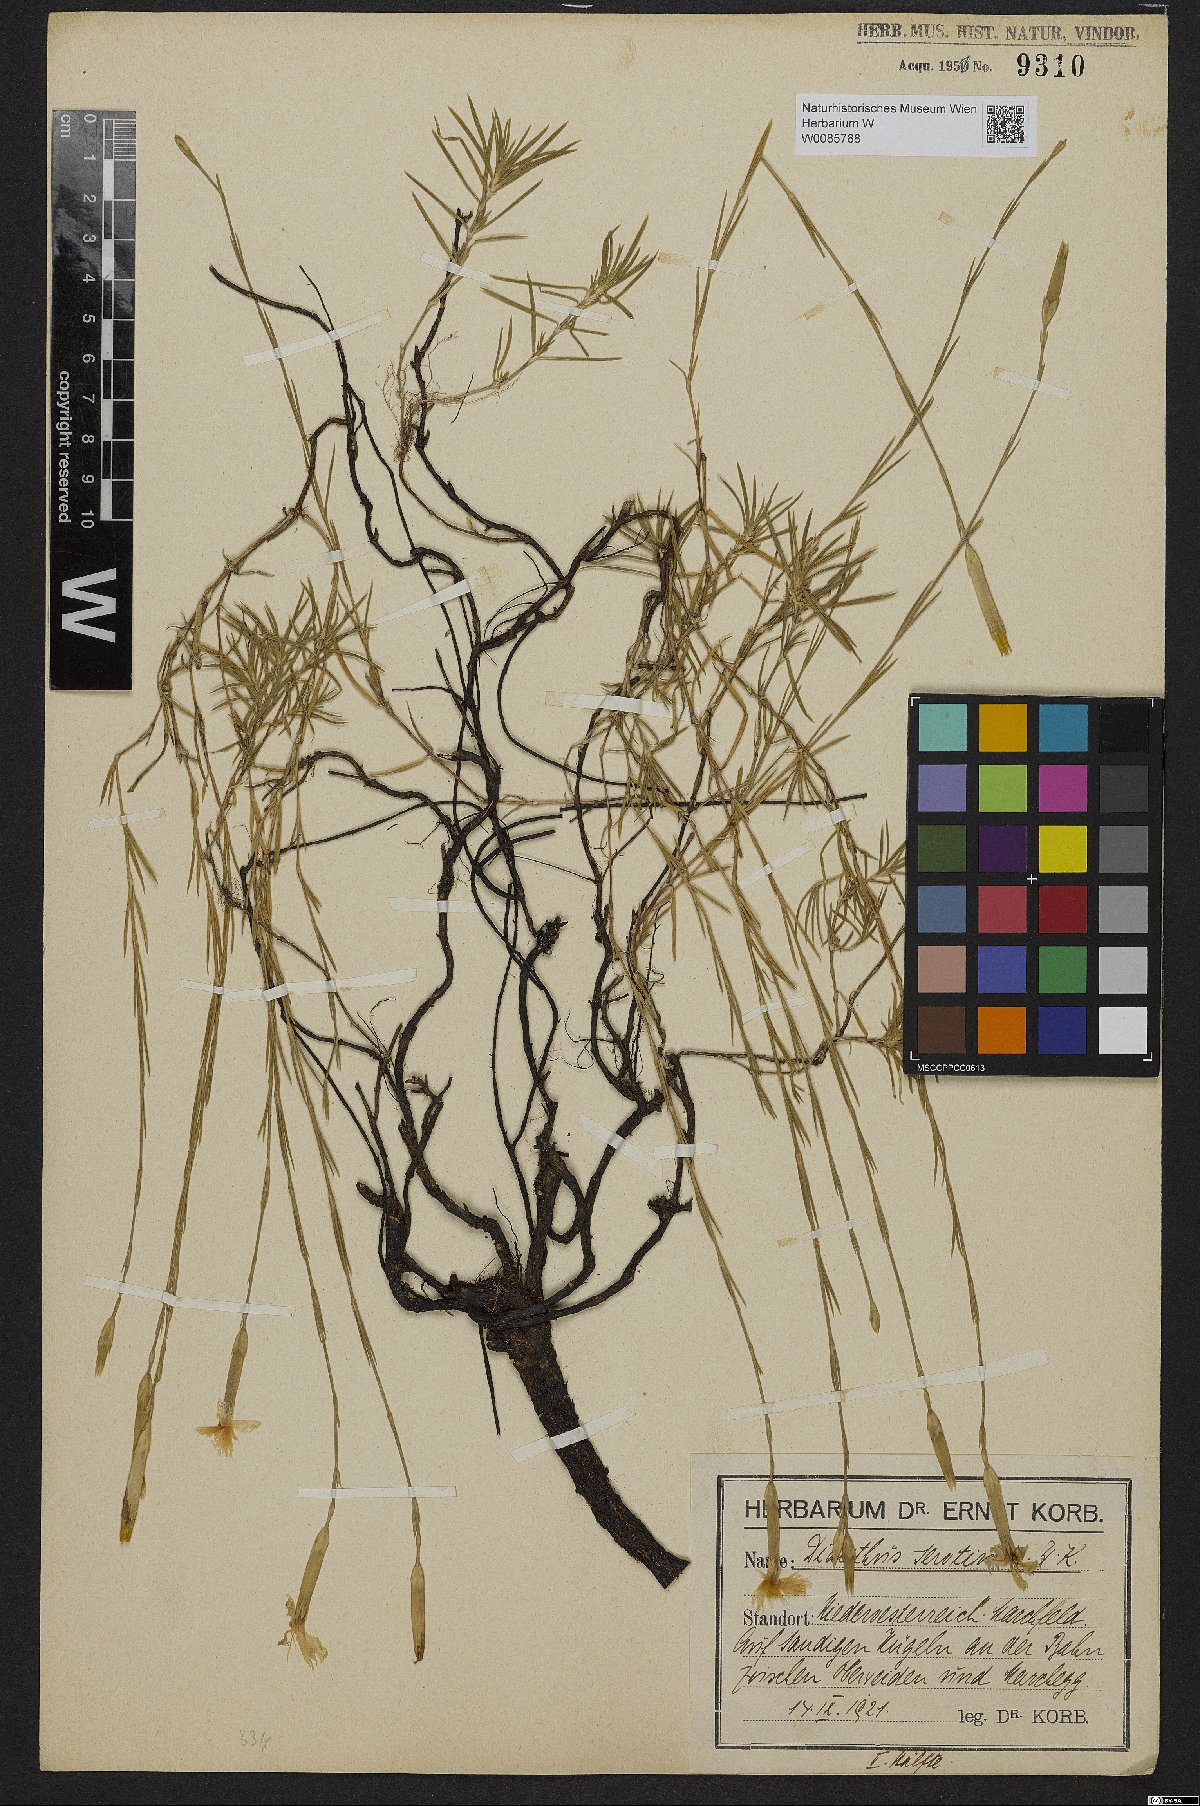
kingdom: Plantae
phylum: Tracheophyta
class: Magnoliopsida
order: Caryophyllales
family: Caryophyllaceae
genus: Dianthus
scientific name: Dianthus serotinus
